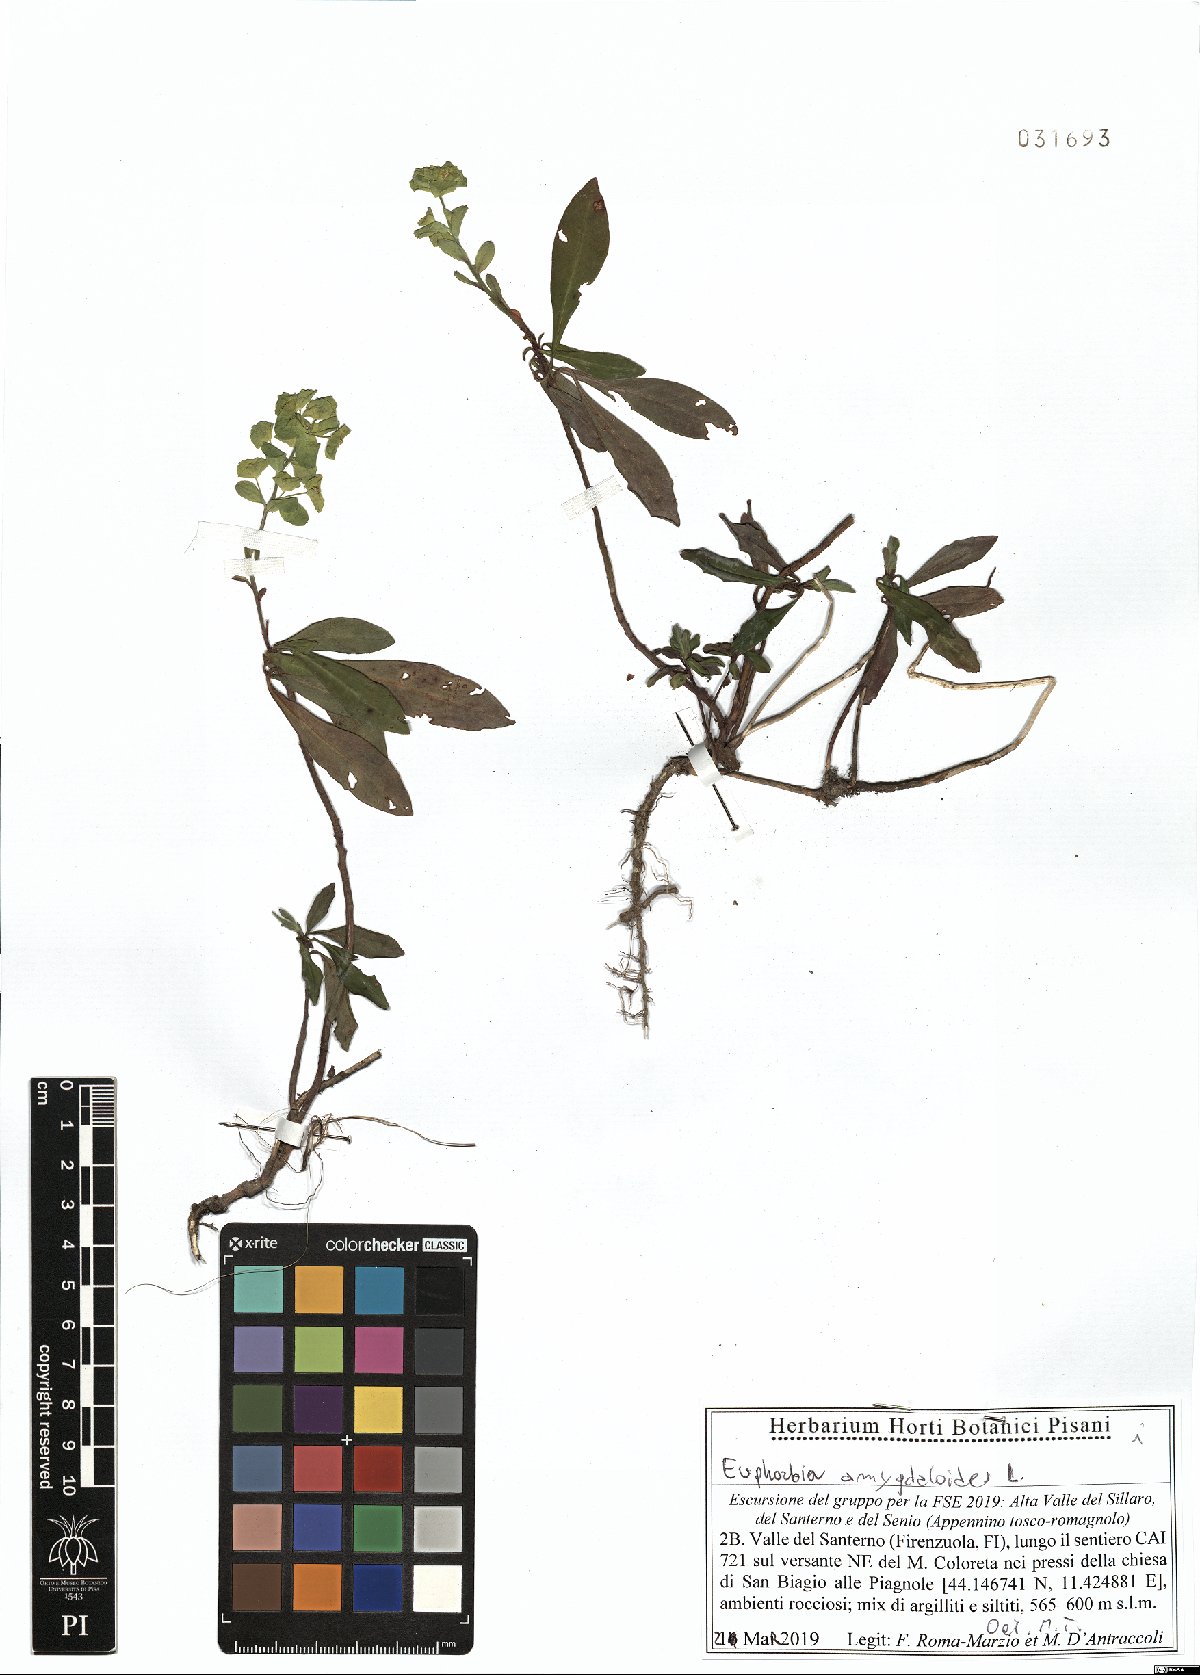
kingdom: Plantae
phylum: Tracheophyta
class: Magnoliopsida
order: Malpighiales
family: Euphorbiaceae
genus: Euphorbia
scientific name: Euphorbia amygdaloides
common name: Wood spurge
